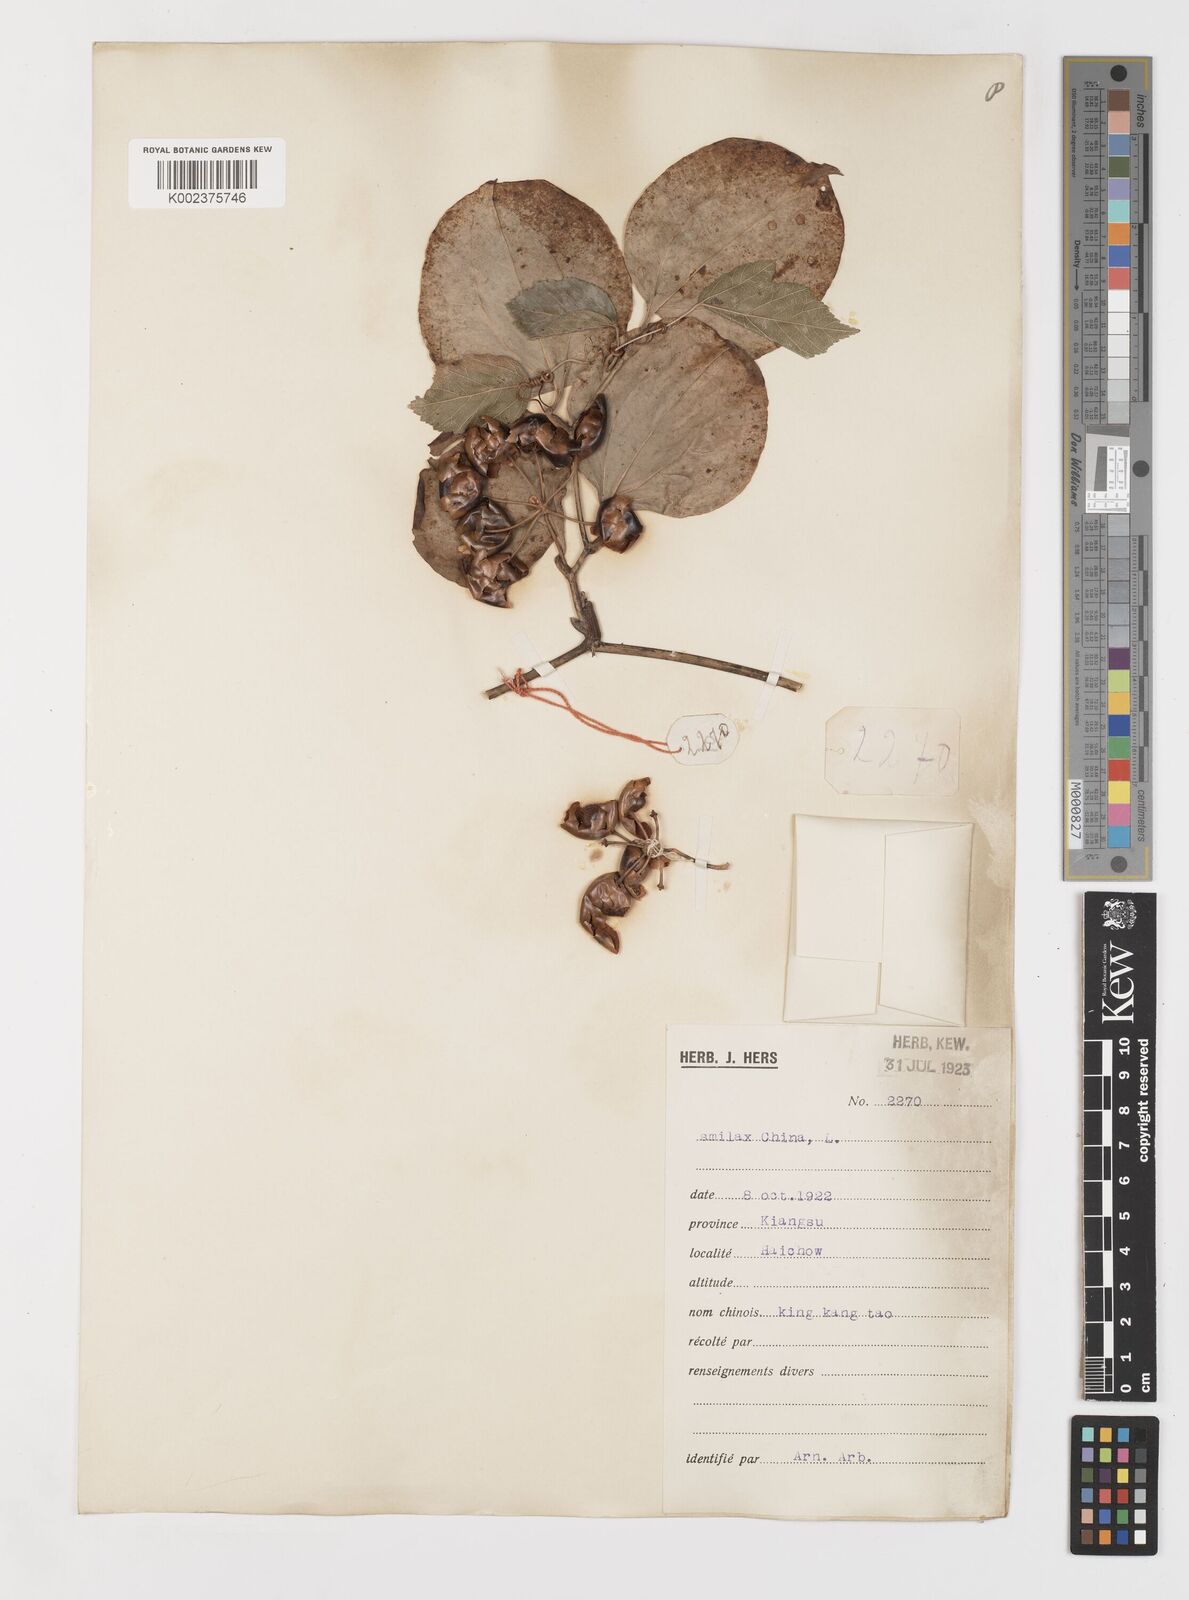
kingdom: Plantae
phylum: Tracheophyta
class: Liliopsida
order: Liliales
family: Smilacaceae
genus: Smilax
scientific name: Smilax china
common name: Chinaroot
